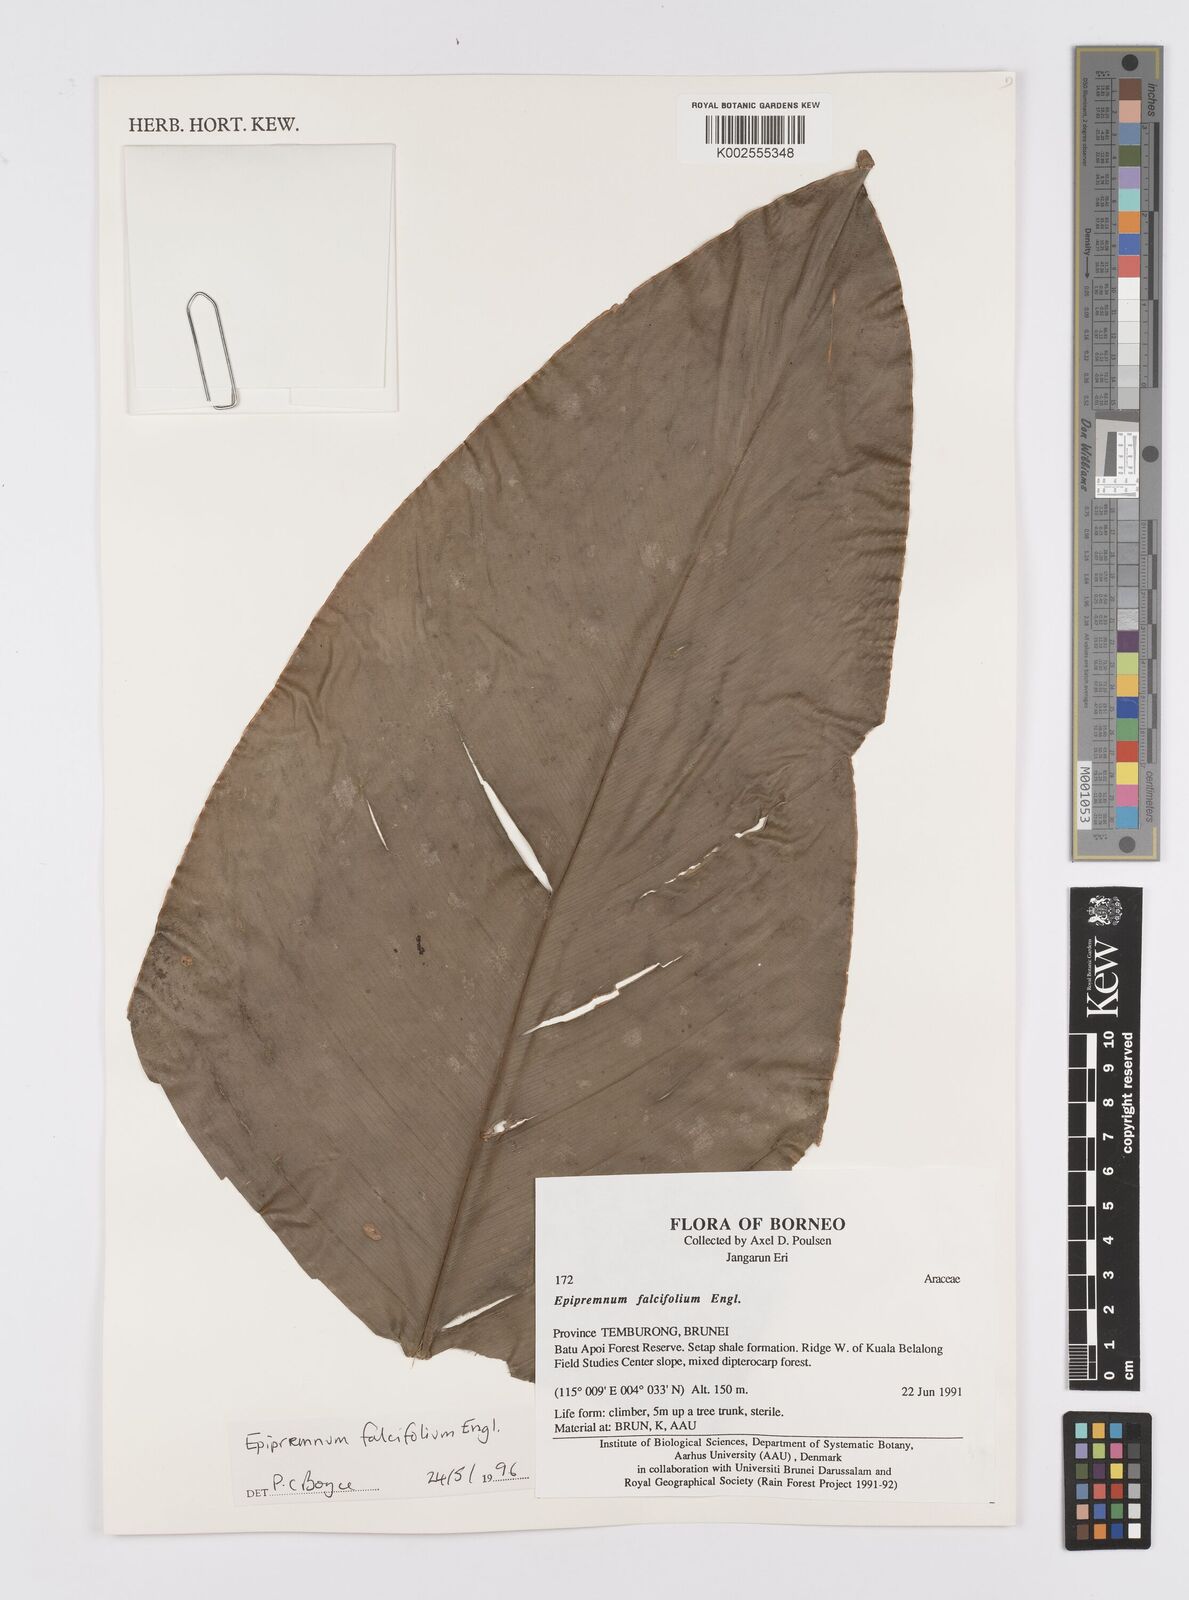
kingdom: Plantae
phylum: Tracheophyta
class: Liliopsida
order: Alismatales
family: Araceae
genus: Epipremnum
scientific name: Epipremnum falcifolium
